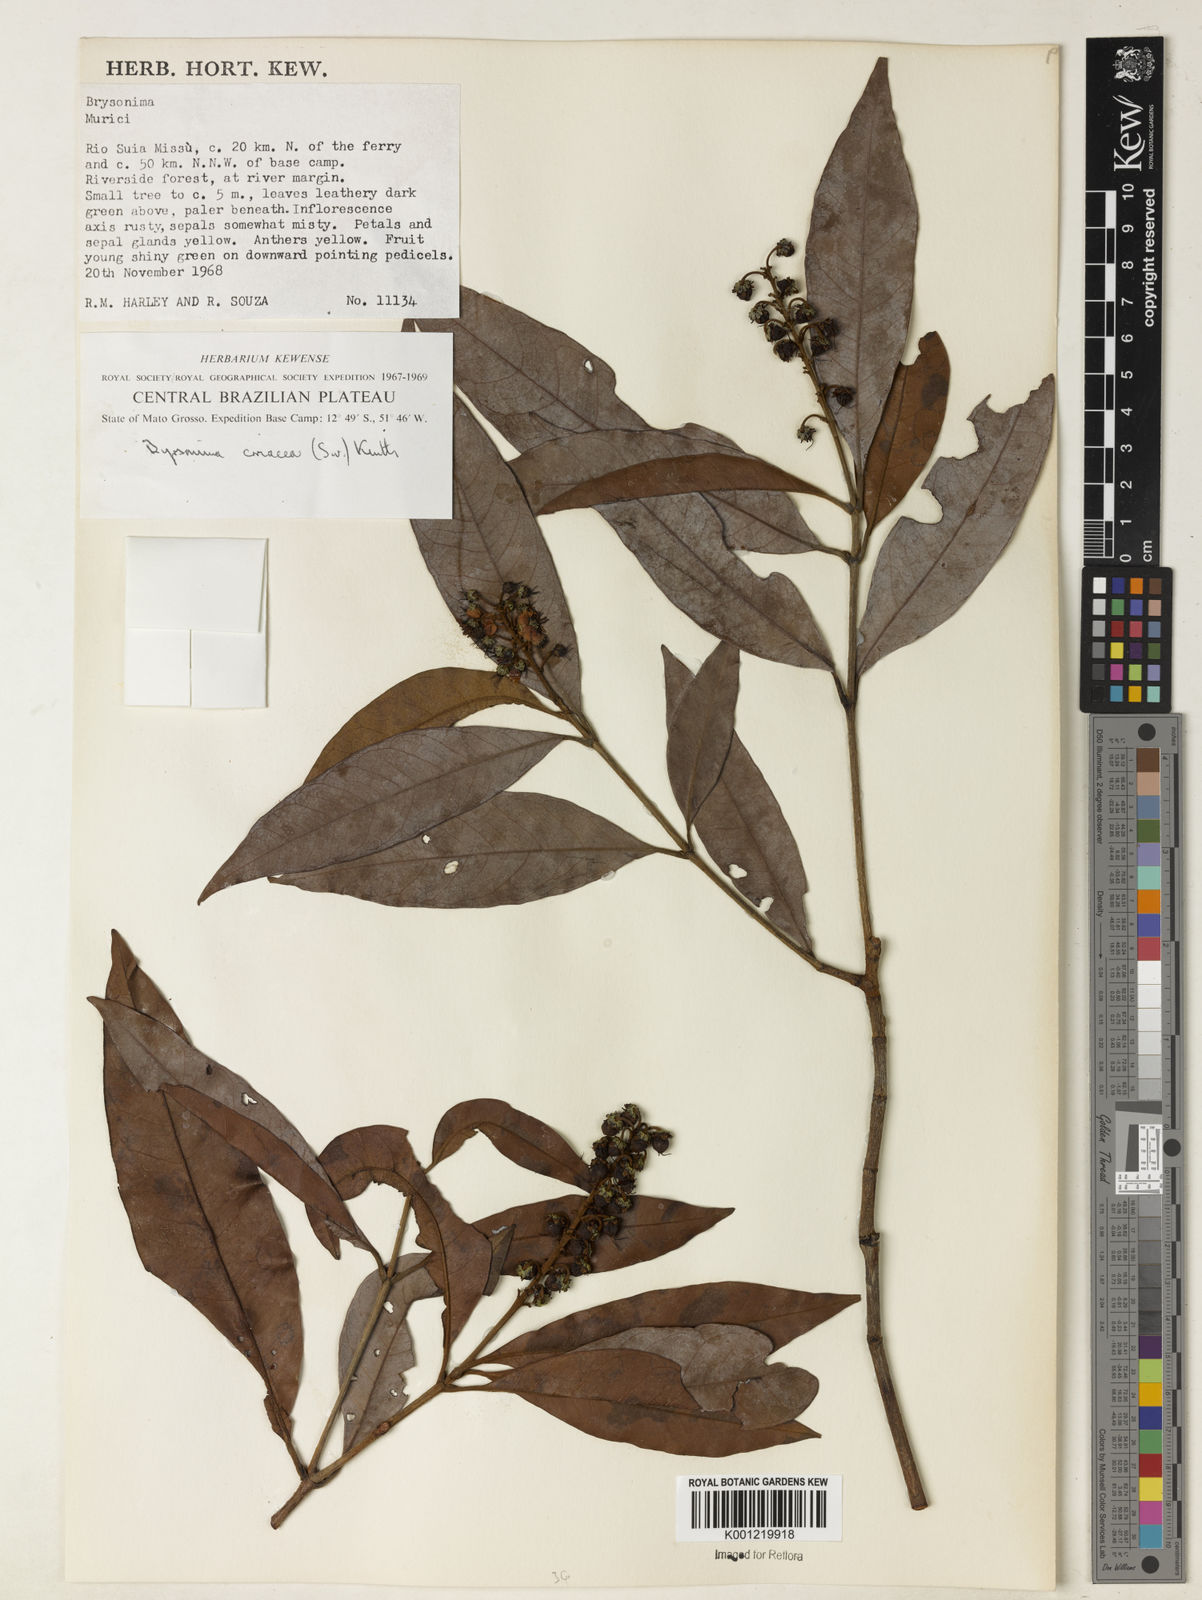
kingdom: Plantae
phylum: Tracheophyta
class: Magnoliopsida
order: Malpighiales
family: Malpighiaceae
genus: Byrsonima
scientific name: Byrsonima
